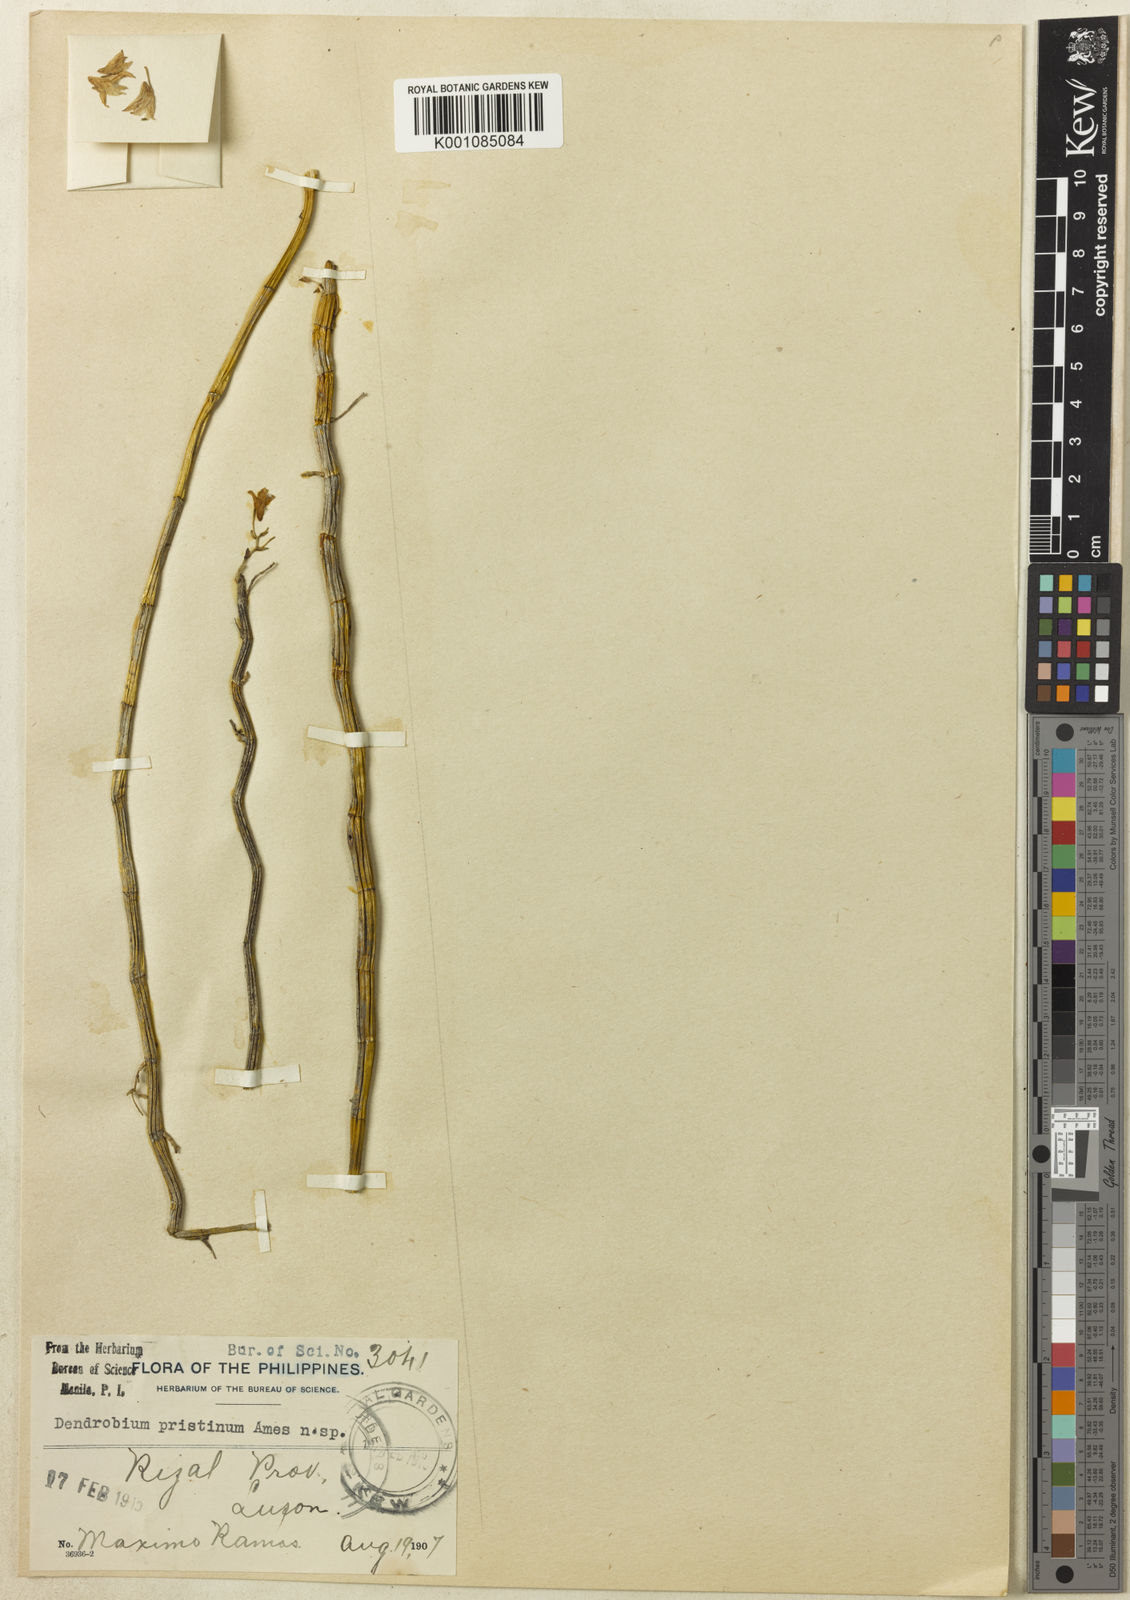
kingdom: Plantae
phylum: Tracheophyta
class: Liliopsida
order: Asparagales
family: Orchidaceae
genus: Dendrobium
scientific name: Dendrobium stuposum
